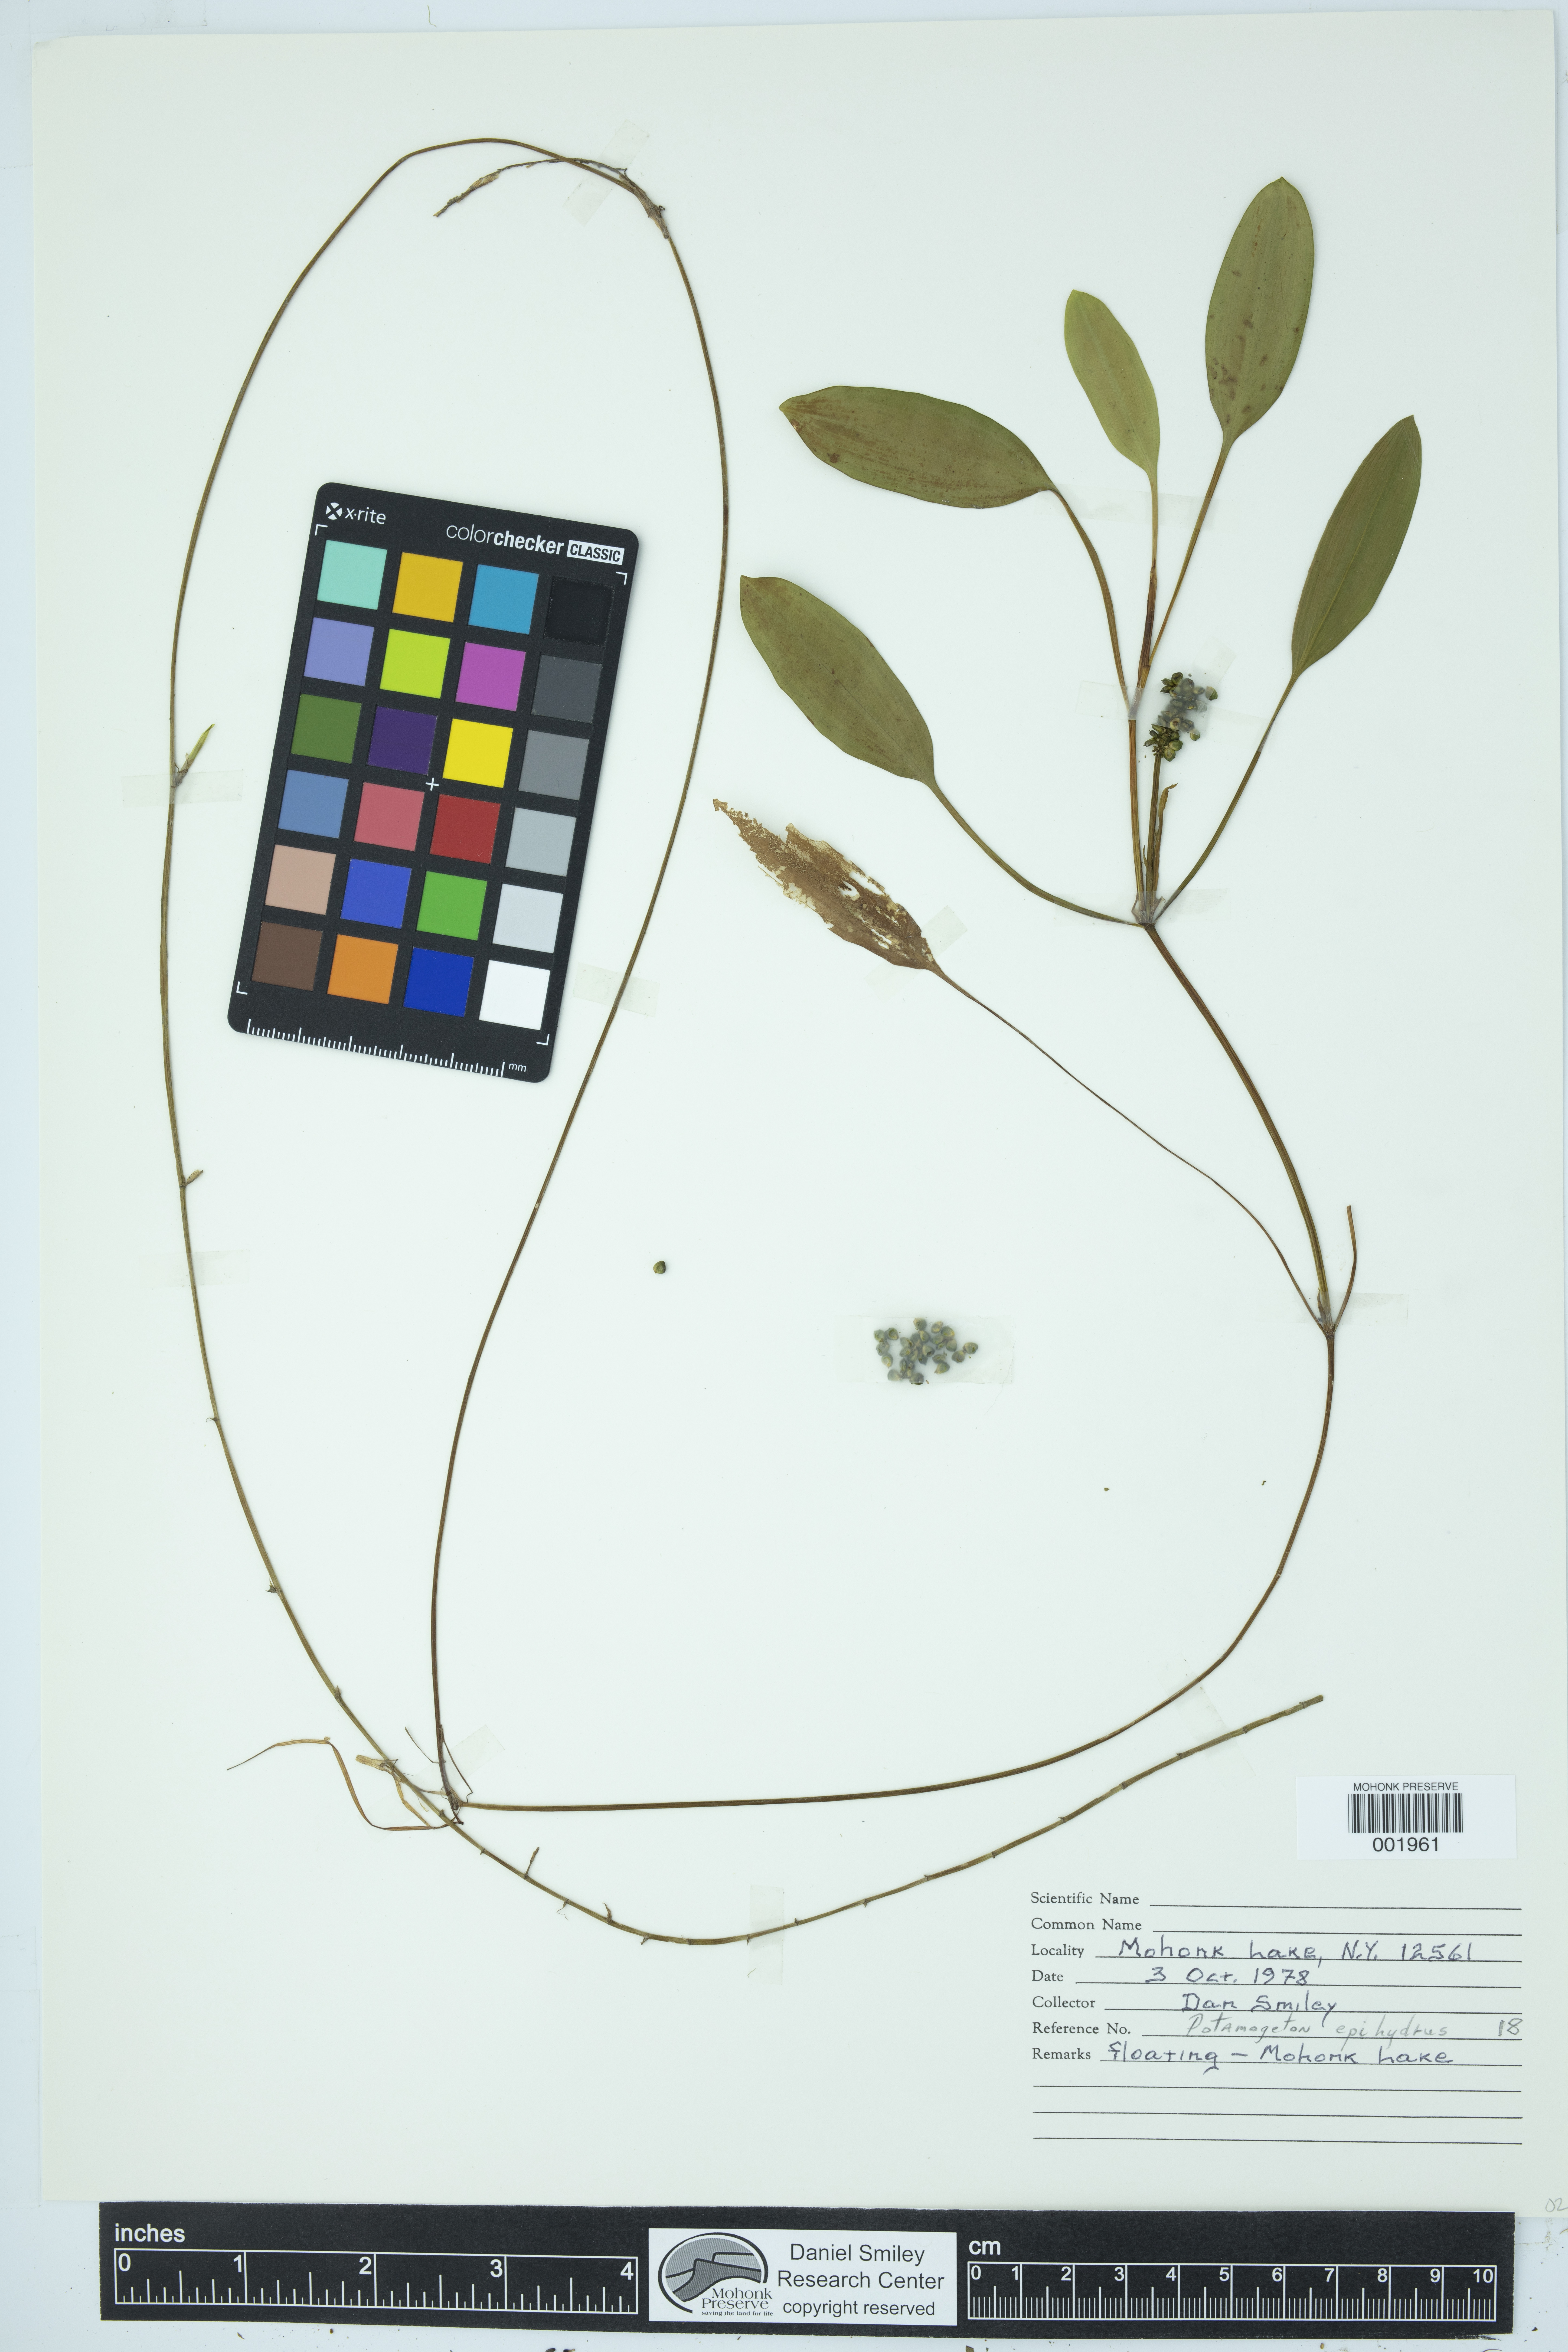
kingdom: Plantae
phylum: Tracheophyta
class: Liliopsida
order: Alismatales
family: Potamogetonaceae
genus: Potamogeton
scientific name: Potamogeton epihydrus
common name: American pondweed
